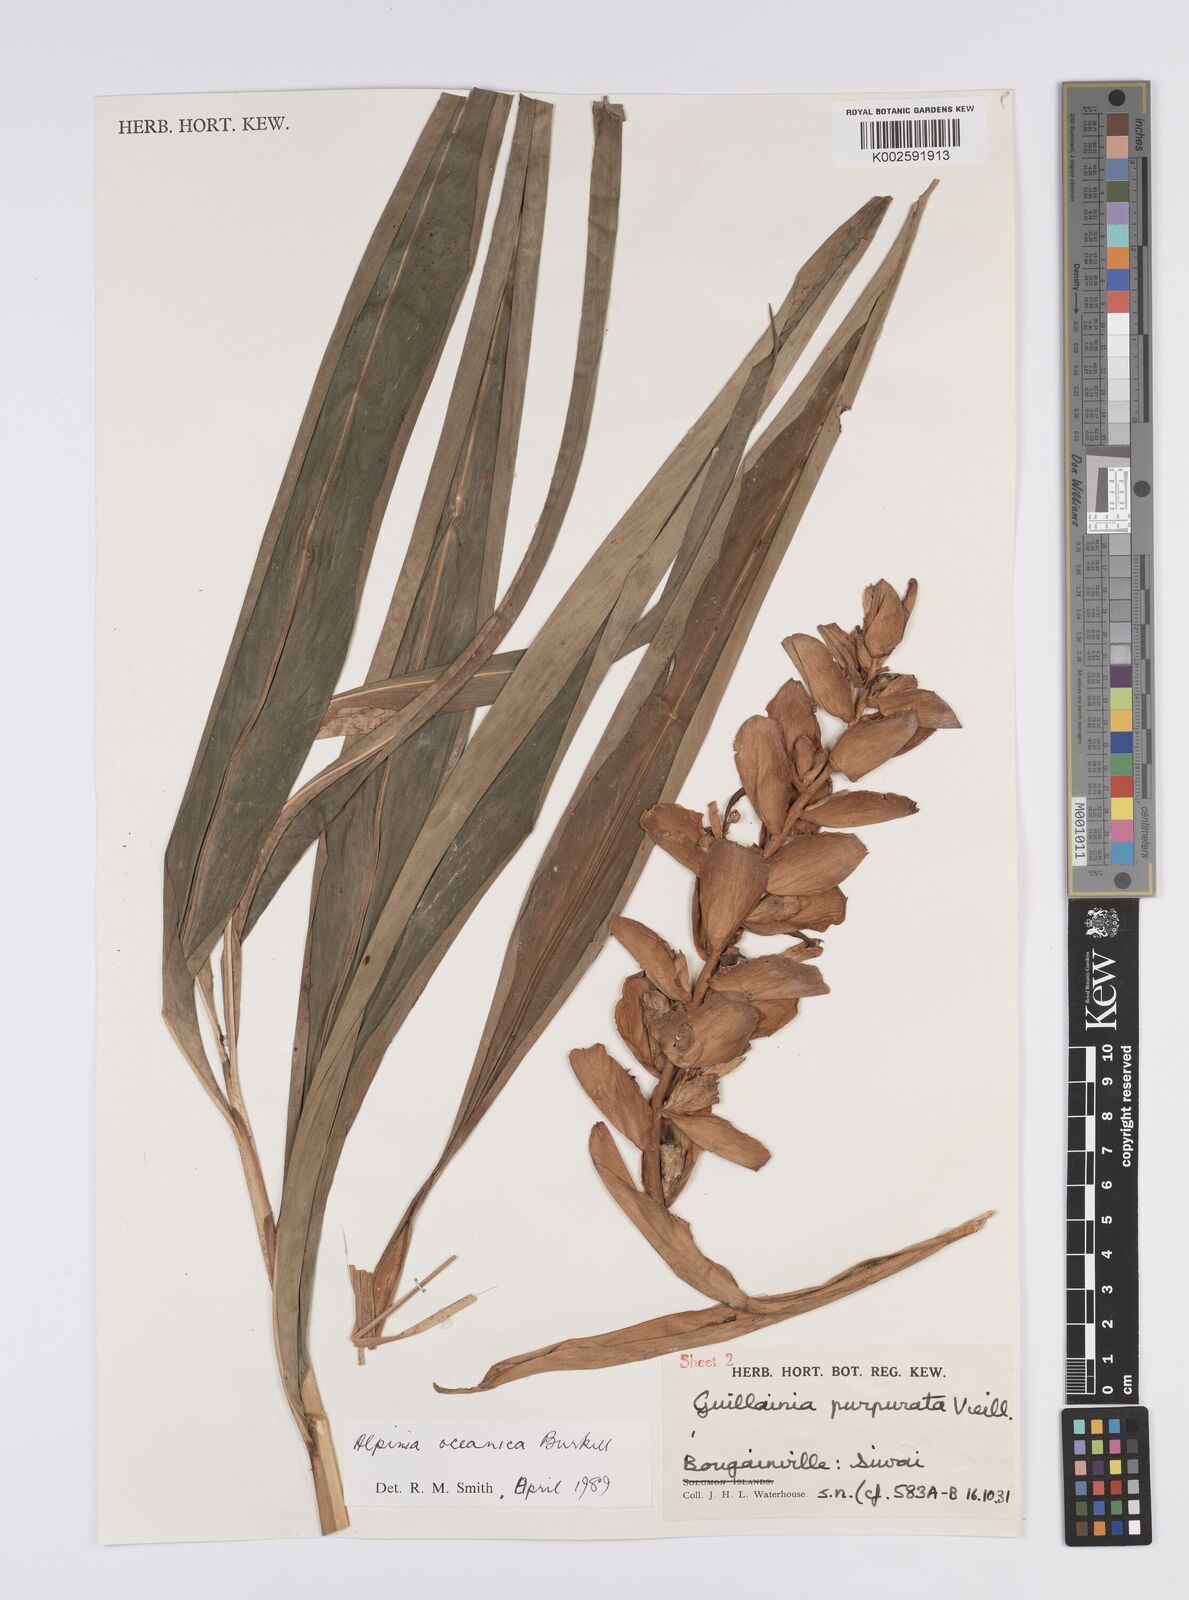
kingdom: Plantae
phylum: Tracheophyta
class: Liliopsida
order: Zingiberales
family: Zingiberaceae
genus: Alpinia
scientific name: Alpinia oceanica
